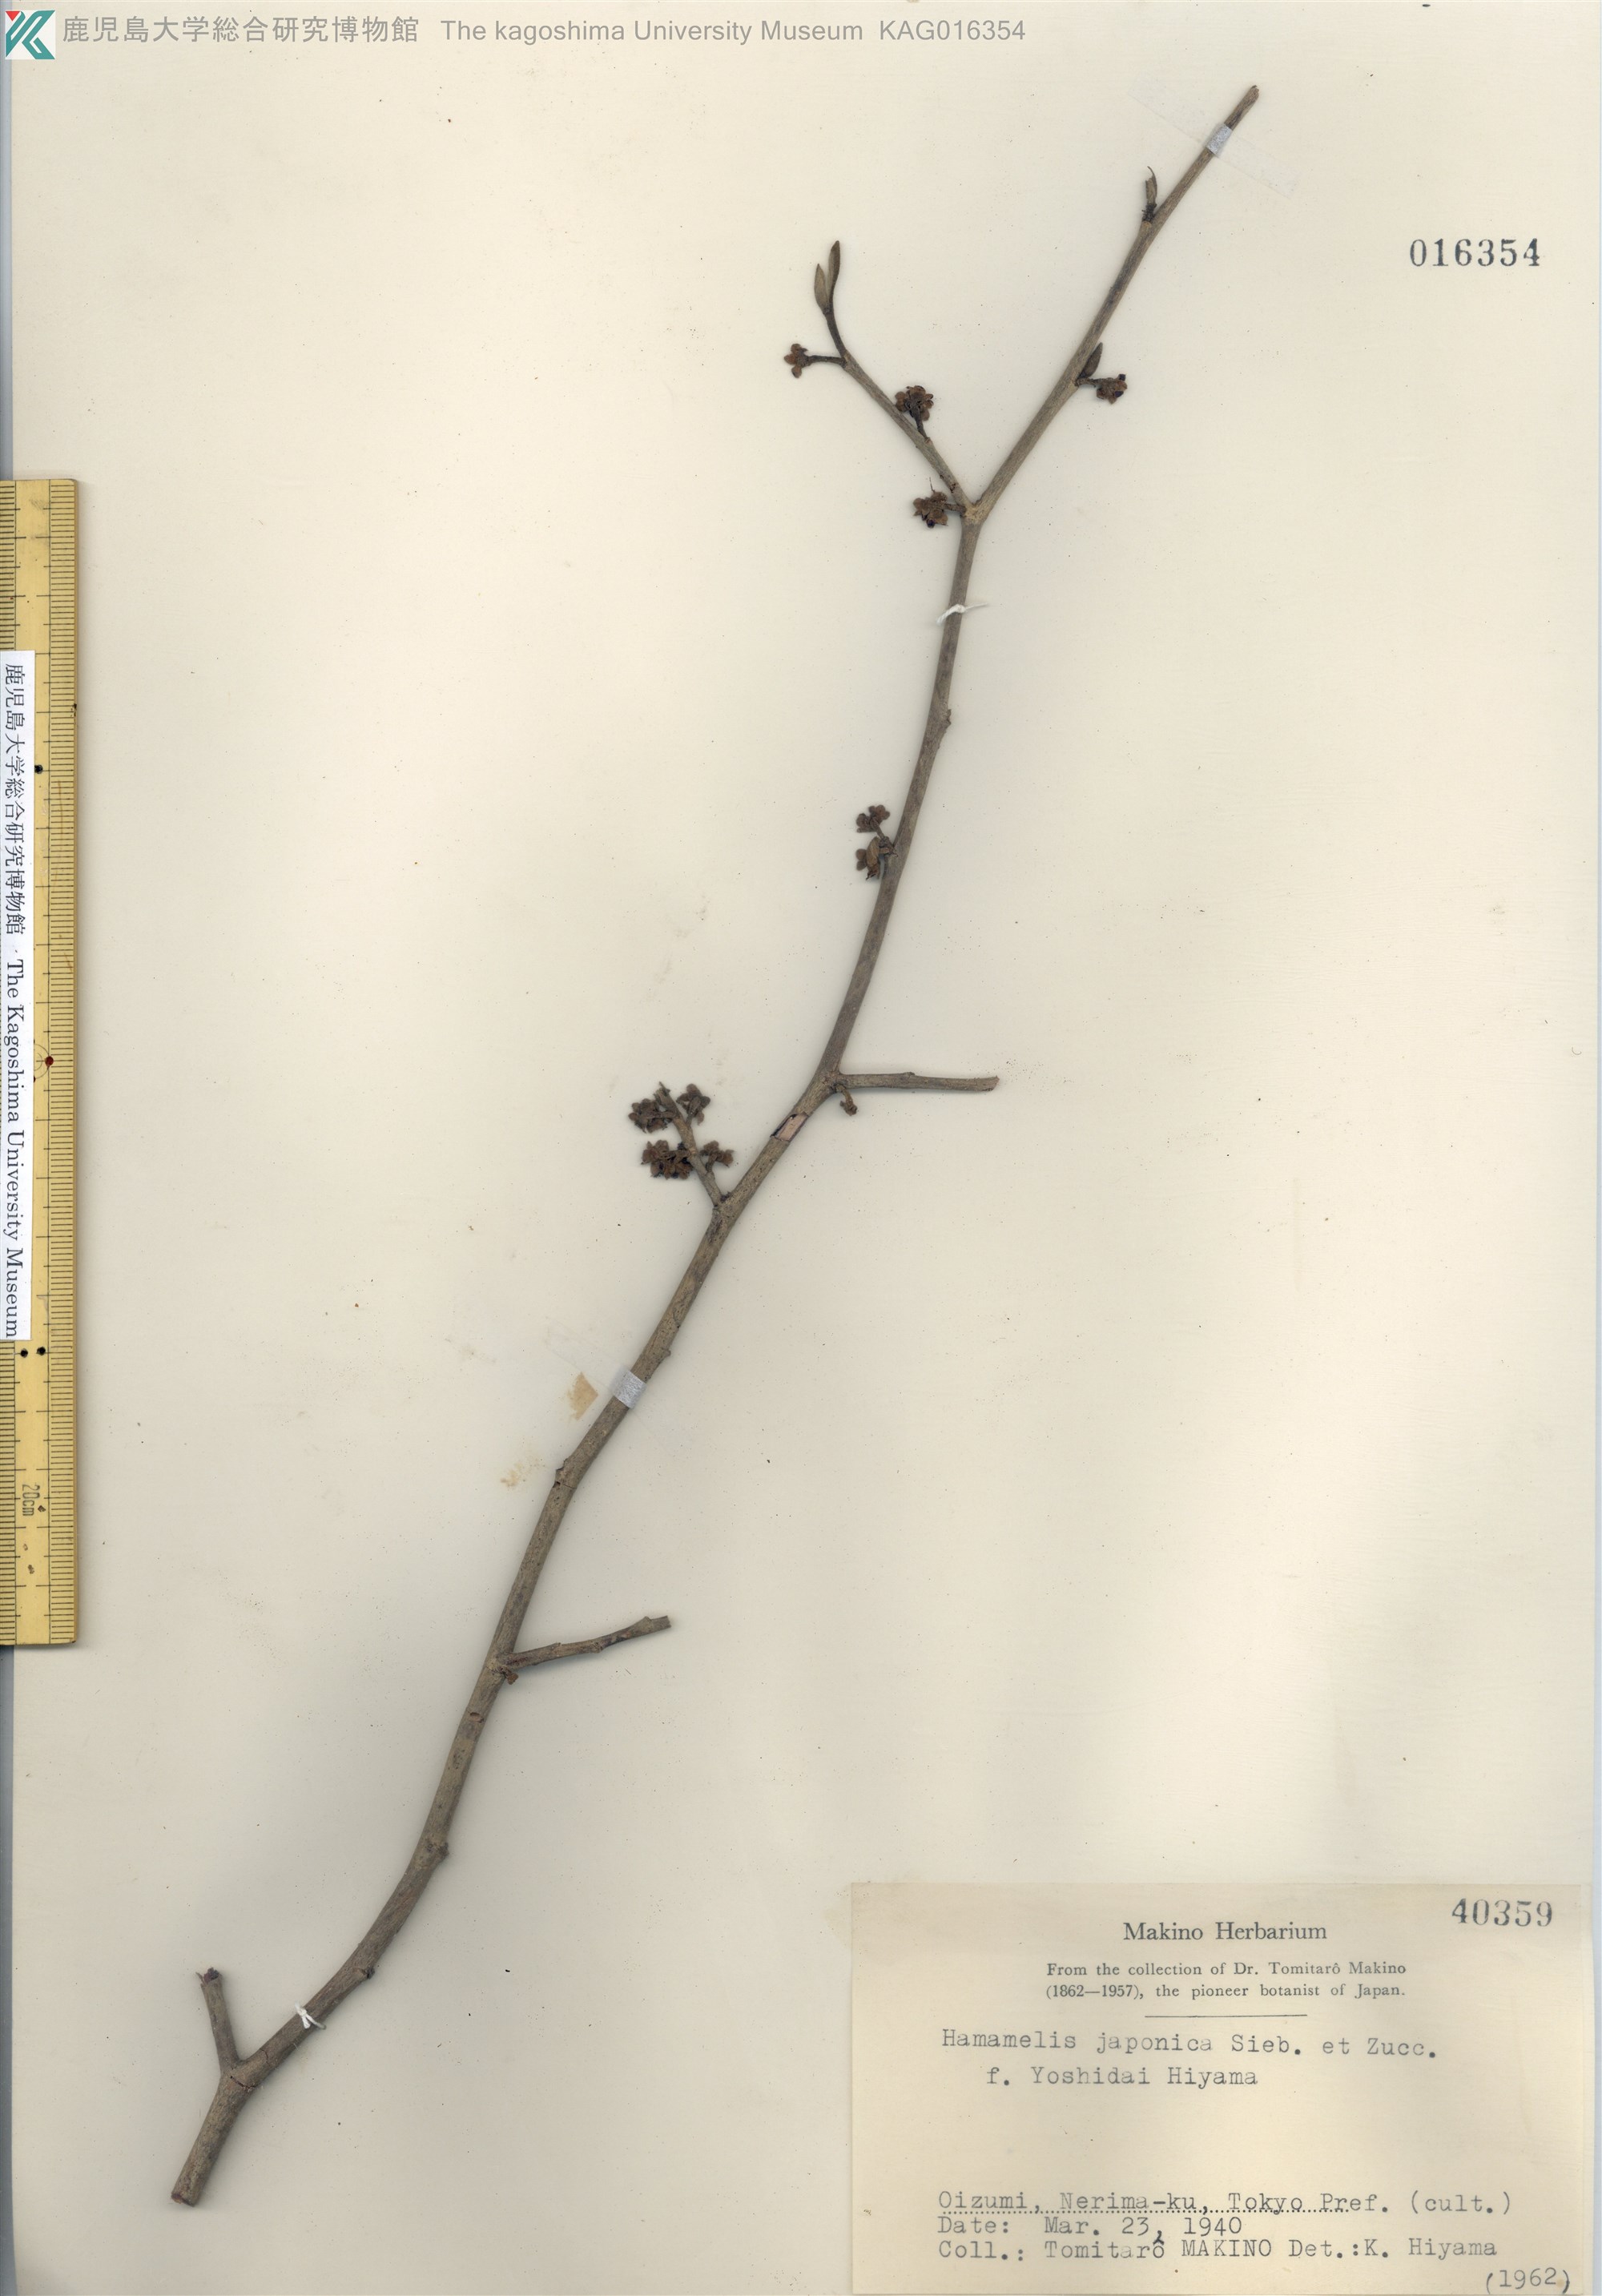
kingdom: Plantae
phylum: Tracheophyta
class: Magnoliopsida
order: Saxifragales
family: Hamamelidaceae
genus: Hamamelis
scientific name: Hamamelis
